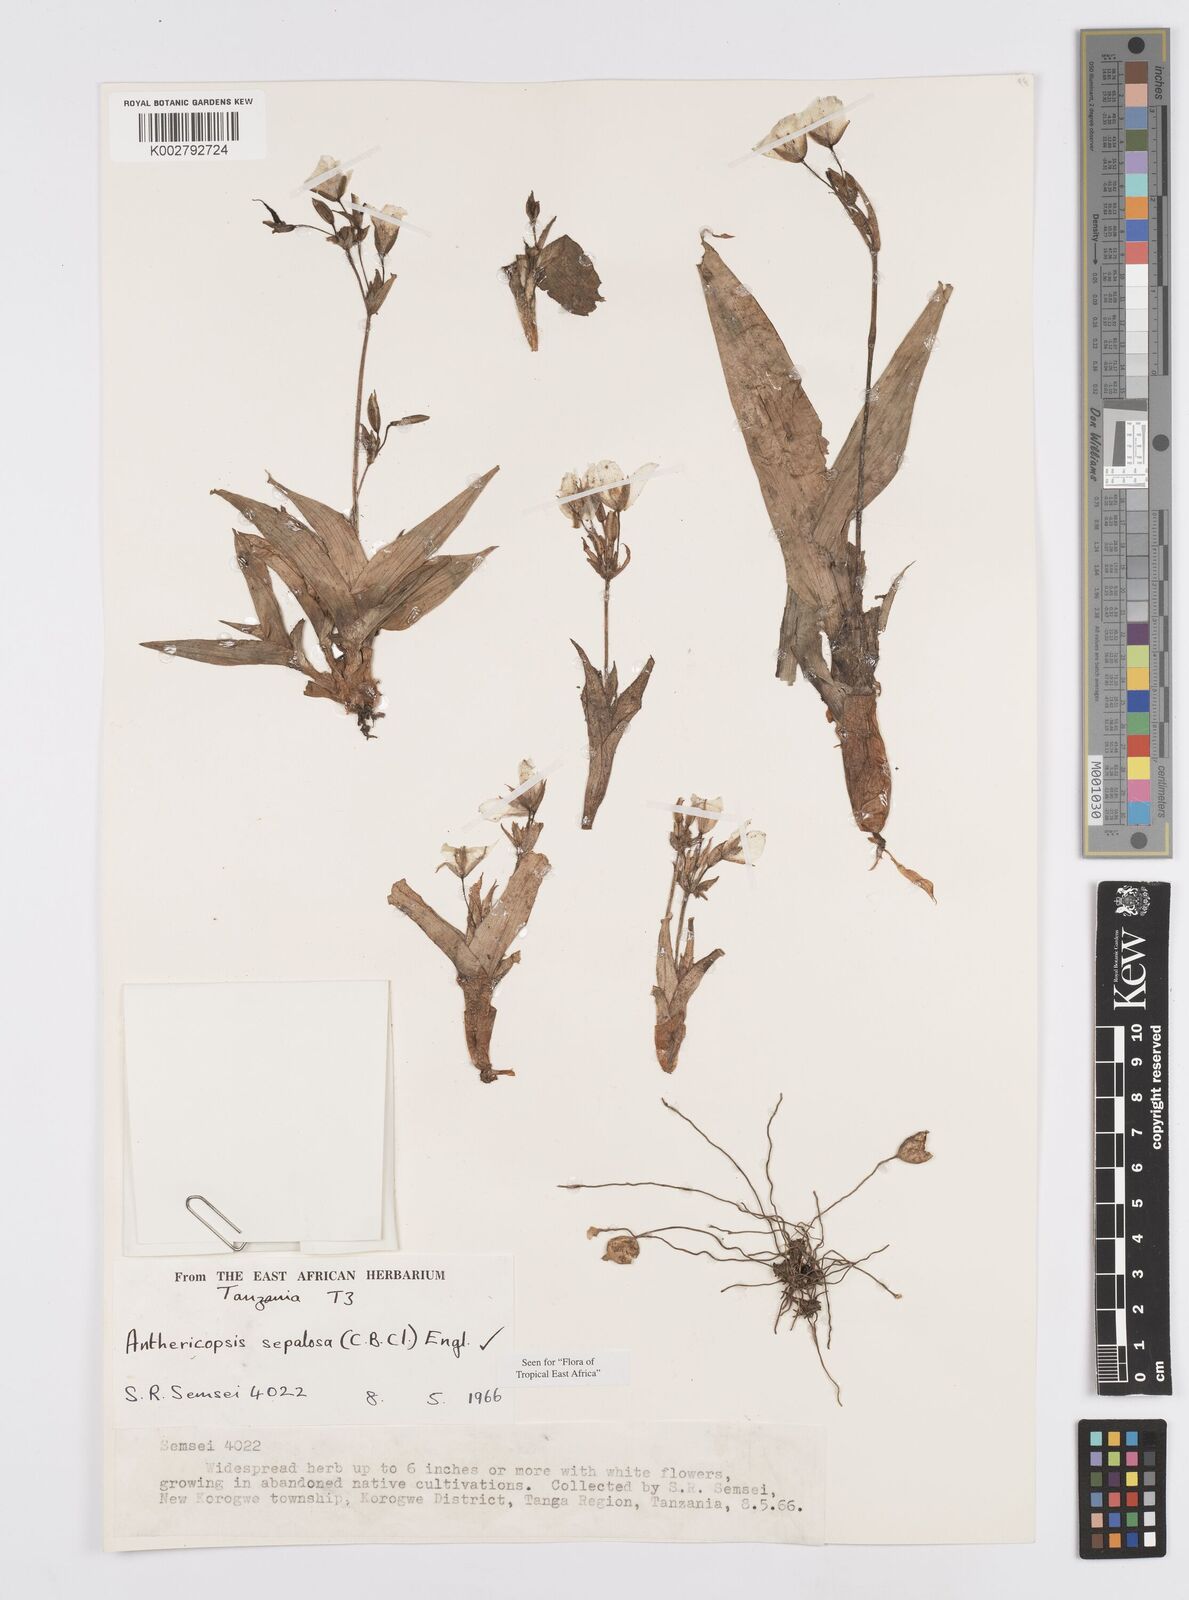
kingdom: Plantae
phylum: Tracheophyta
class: Liliopsida
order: Commelinales
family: Commelinaceae
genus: Anthericopsis
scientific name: Anthericopsis sepalosa
